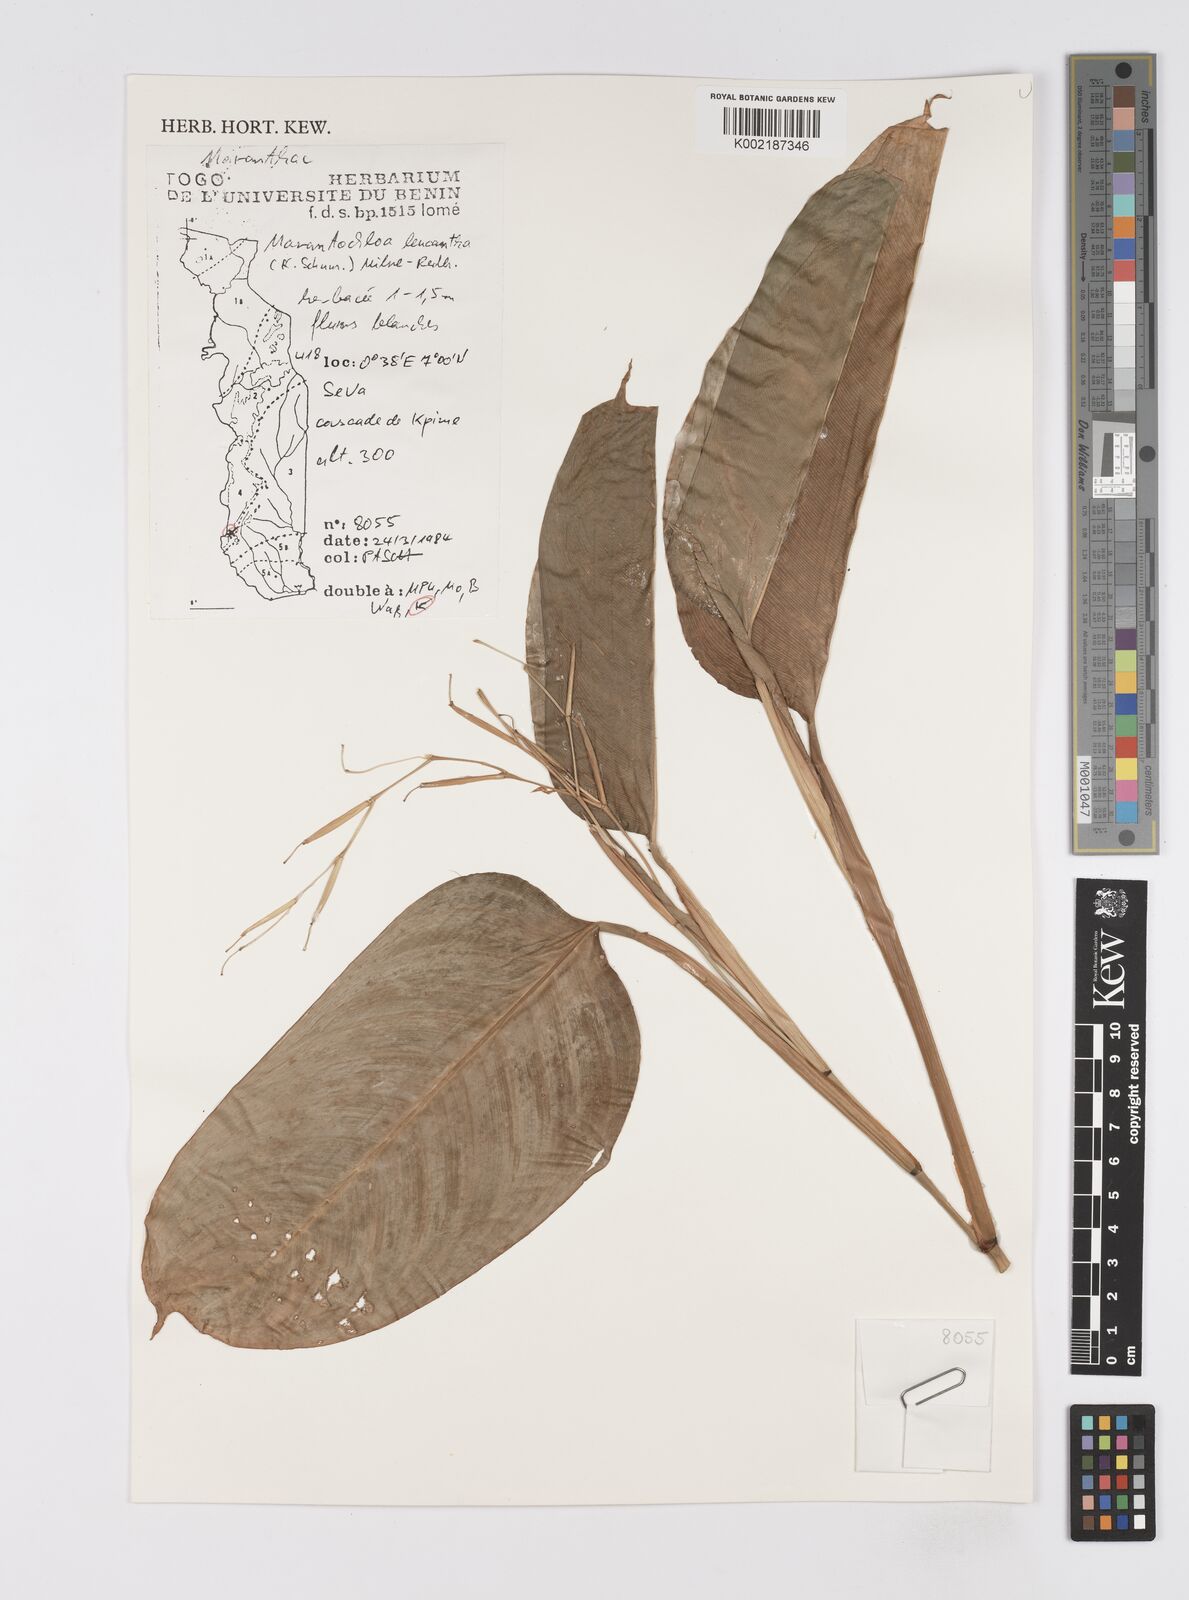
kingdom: Plantae
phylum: Tracheophyta
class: Liliopsida
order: Zingiberales
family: Marantaceae
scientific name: Marantaceae
